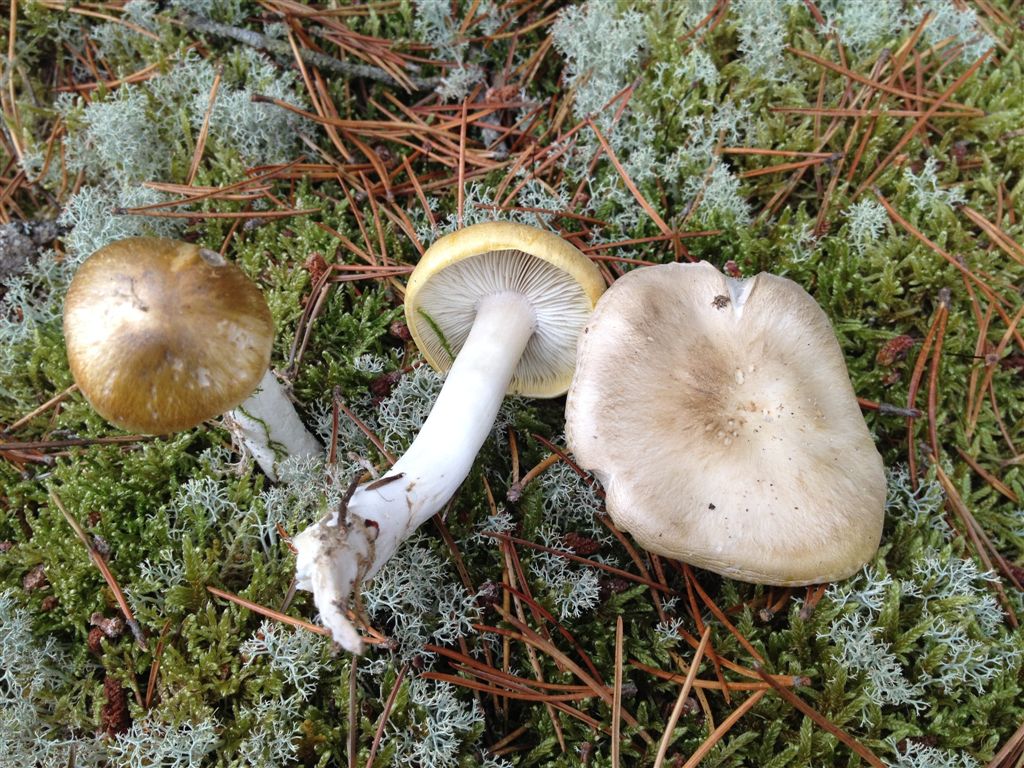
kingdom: Fungi
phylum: Basidiomycota
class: Agaricomycetes
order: Agaricales
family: Tricholomataceae
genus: Tricholoma
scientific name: Tricholoma arvernense
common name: kantet ridderhat
